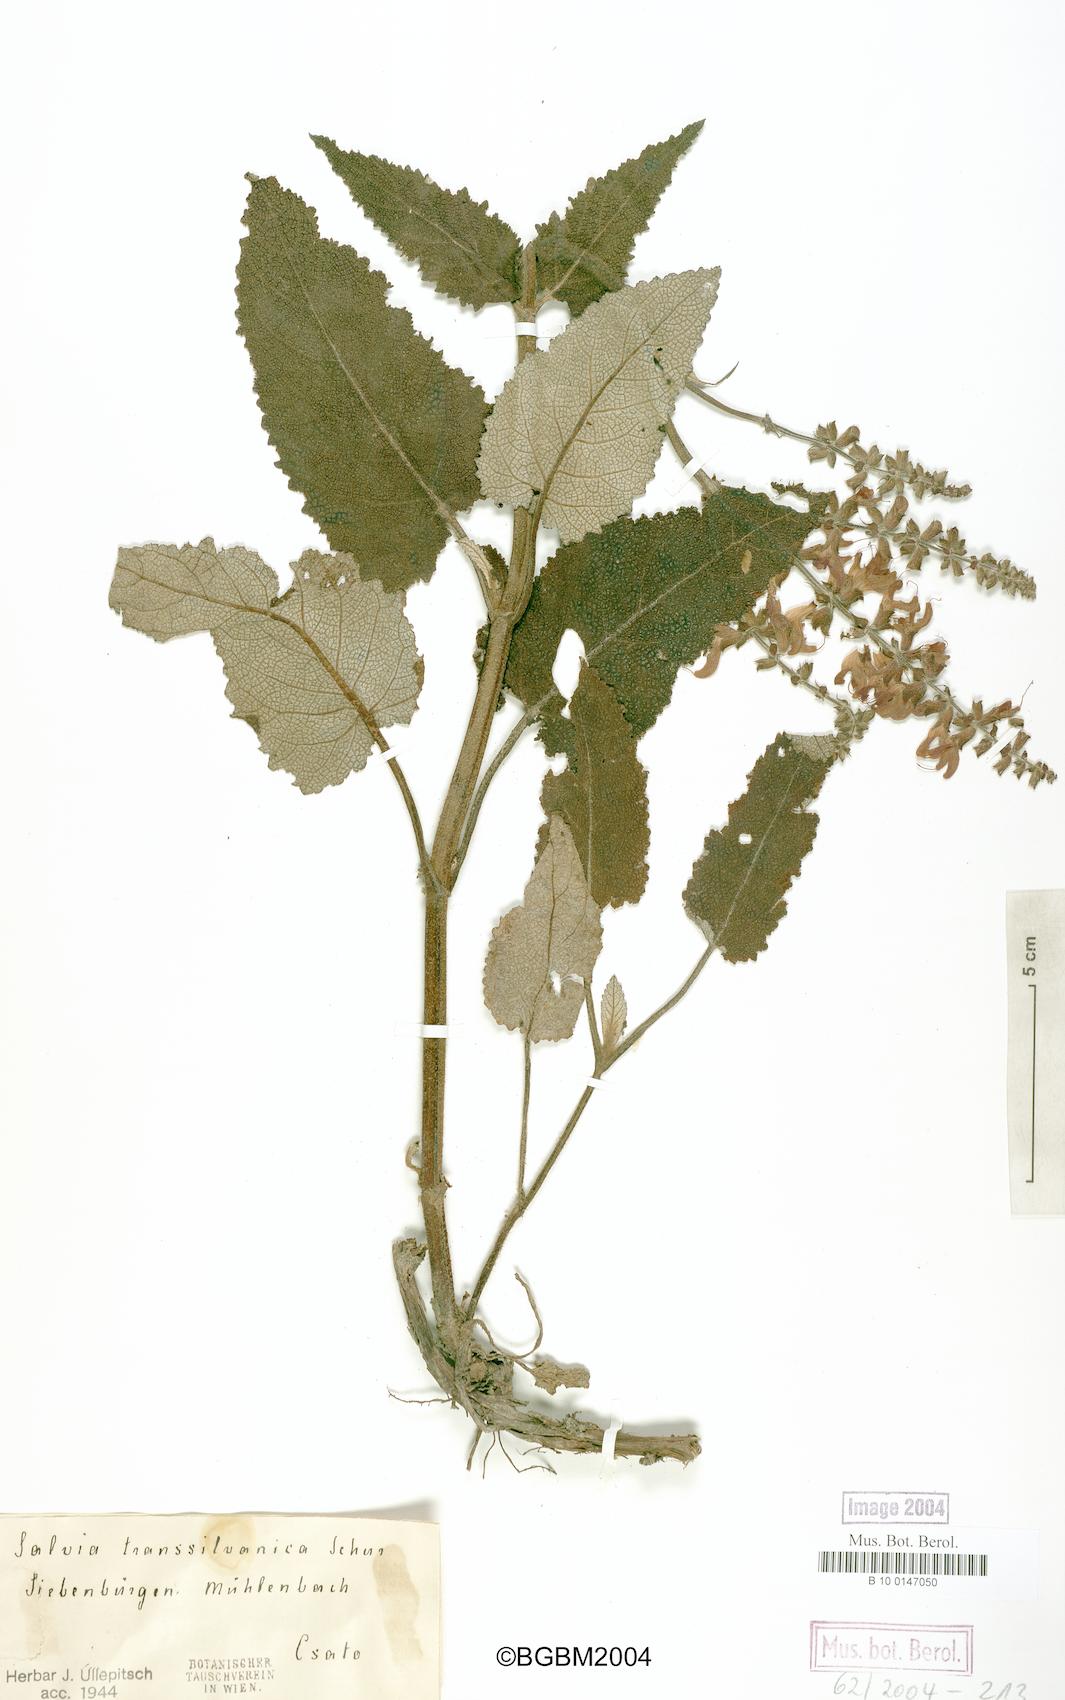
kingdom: Plantae
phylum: Tracheophyta
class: Magnoliopsida
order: Lamiales
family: Lamiaceae
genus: Salvia
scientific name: Salvia transsylvanica
